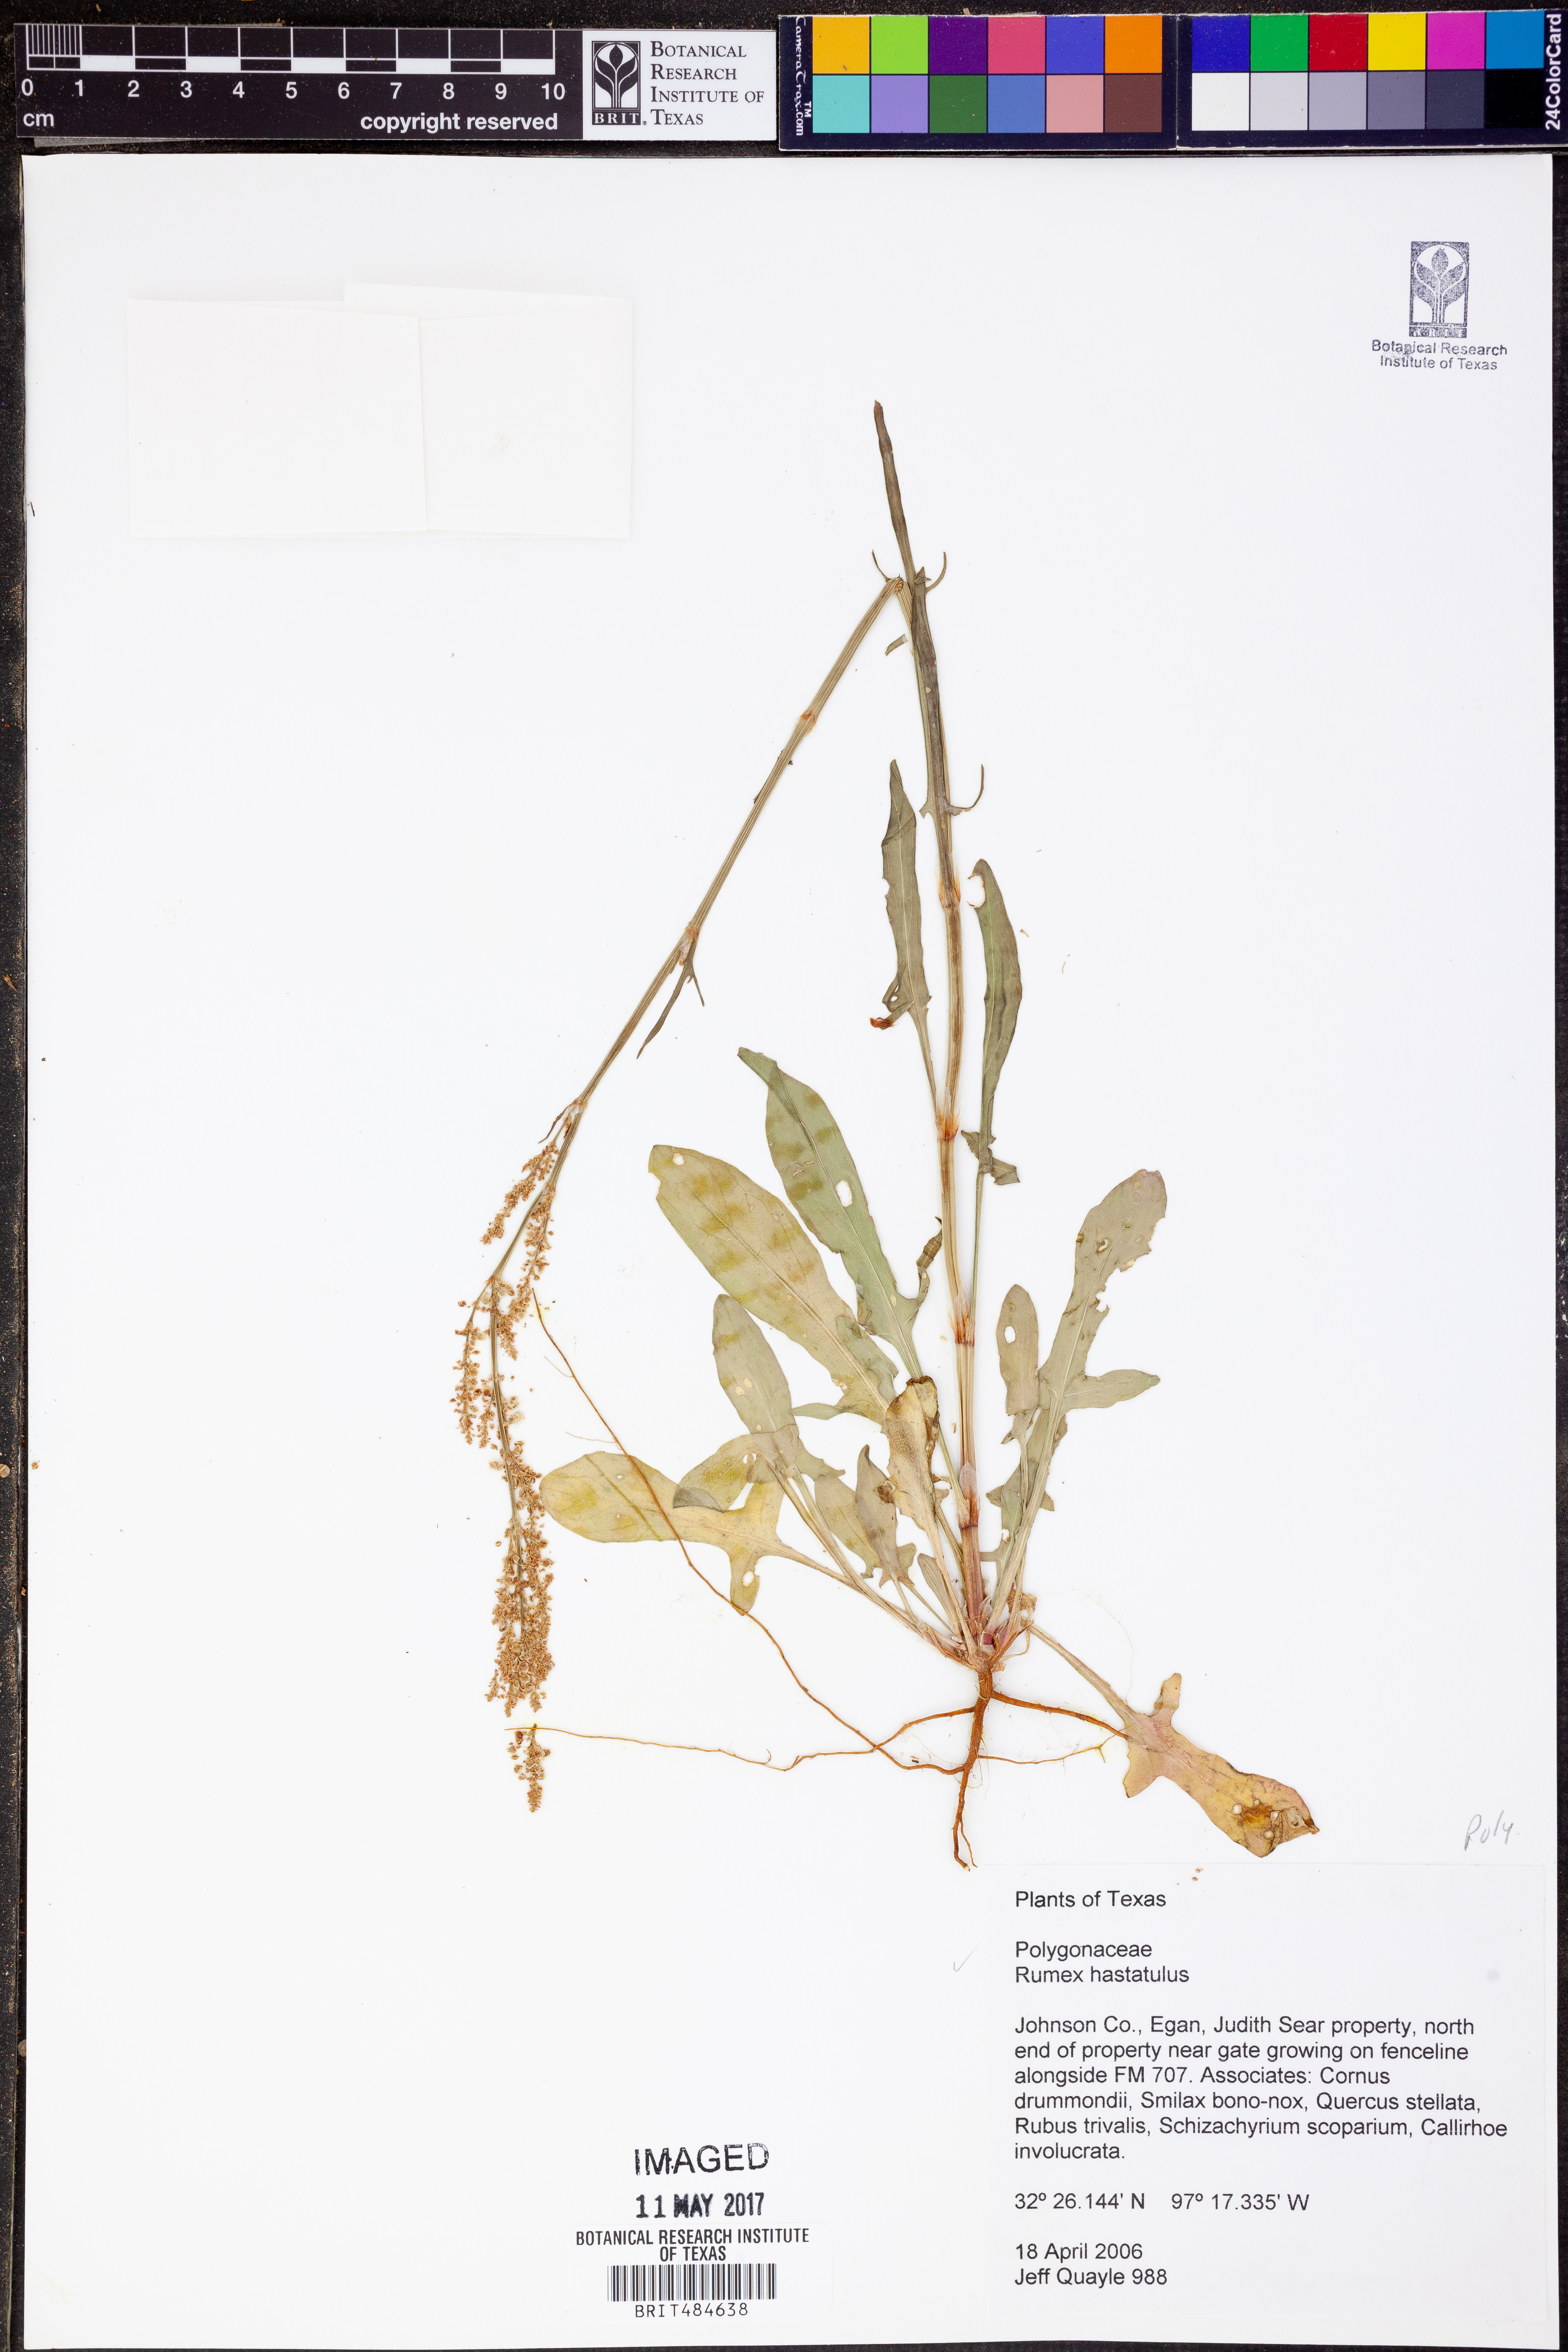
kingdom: Plantae
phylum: Tracheophyta
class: Magnoliopsida
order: Caryophyllales
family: Polygonaceae
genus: Rumex
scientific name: Rumex hastatulus
